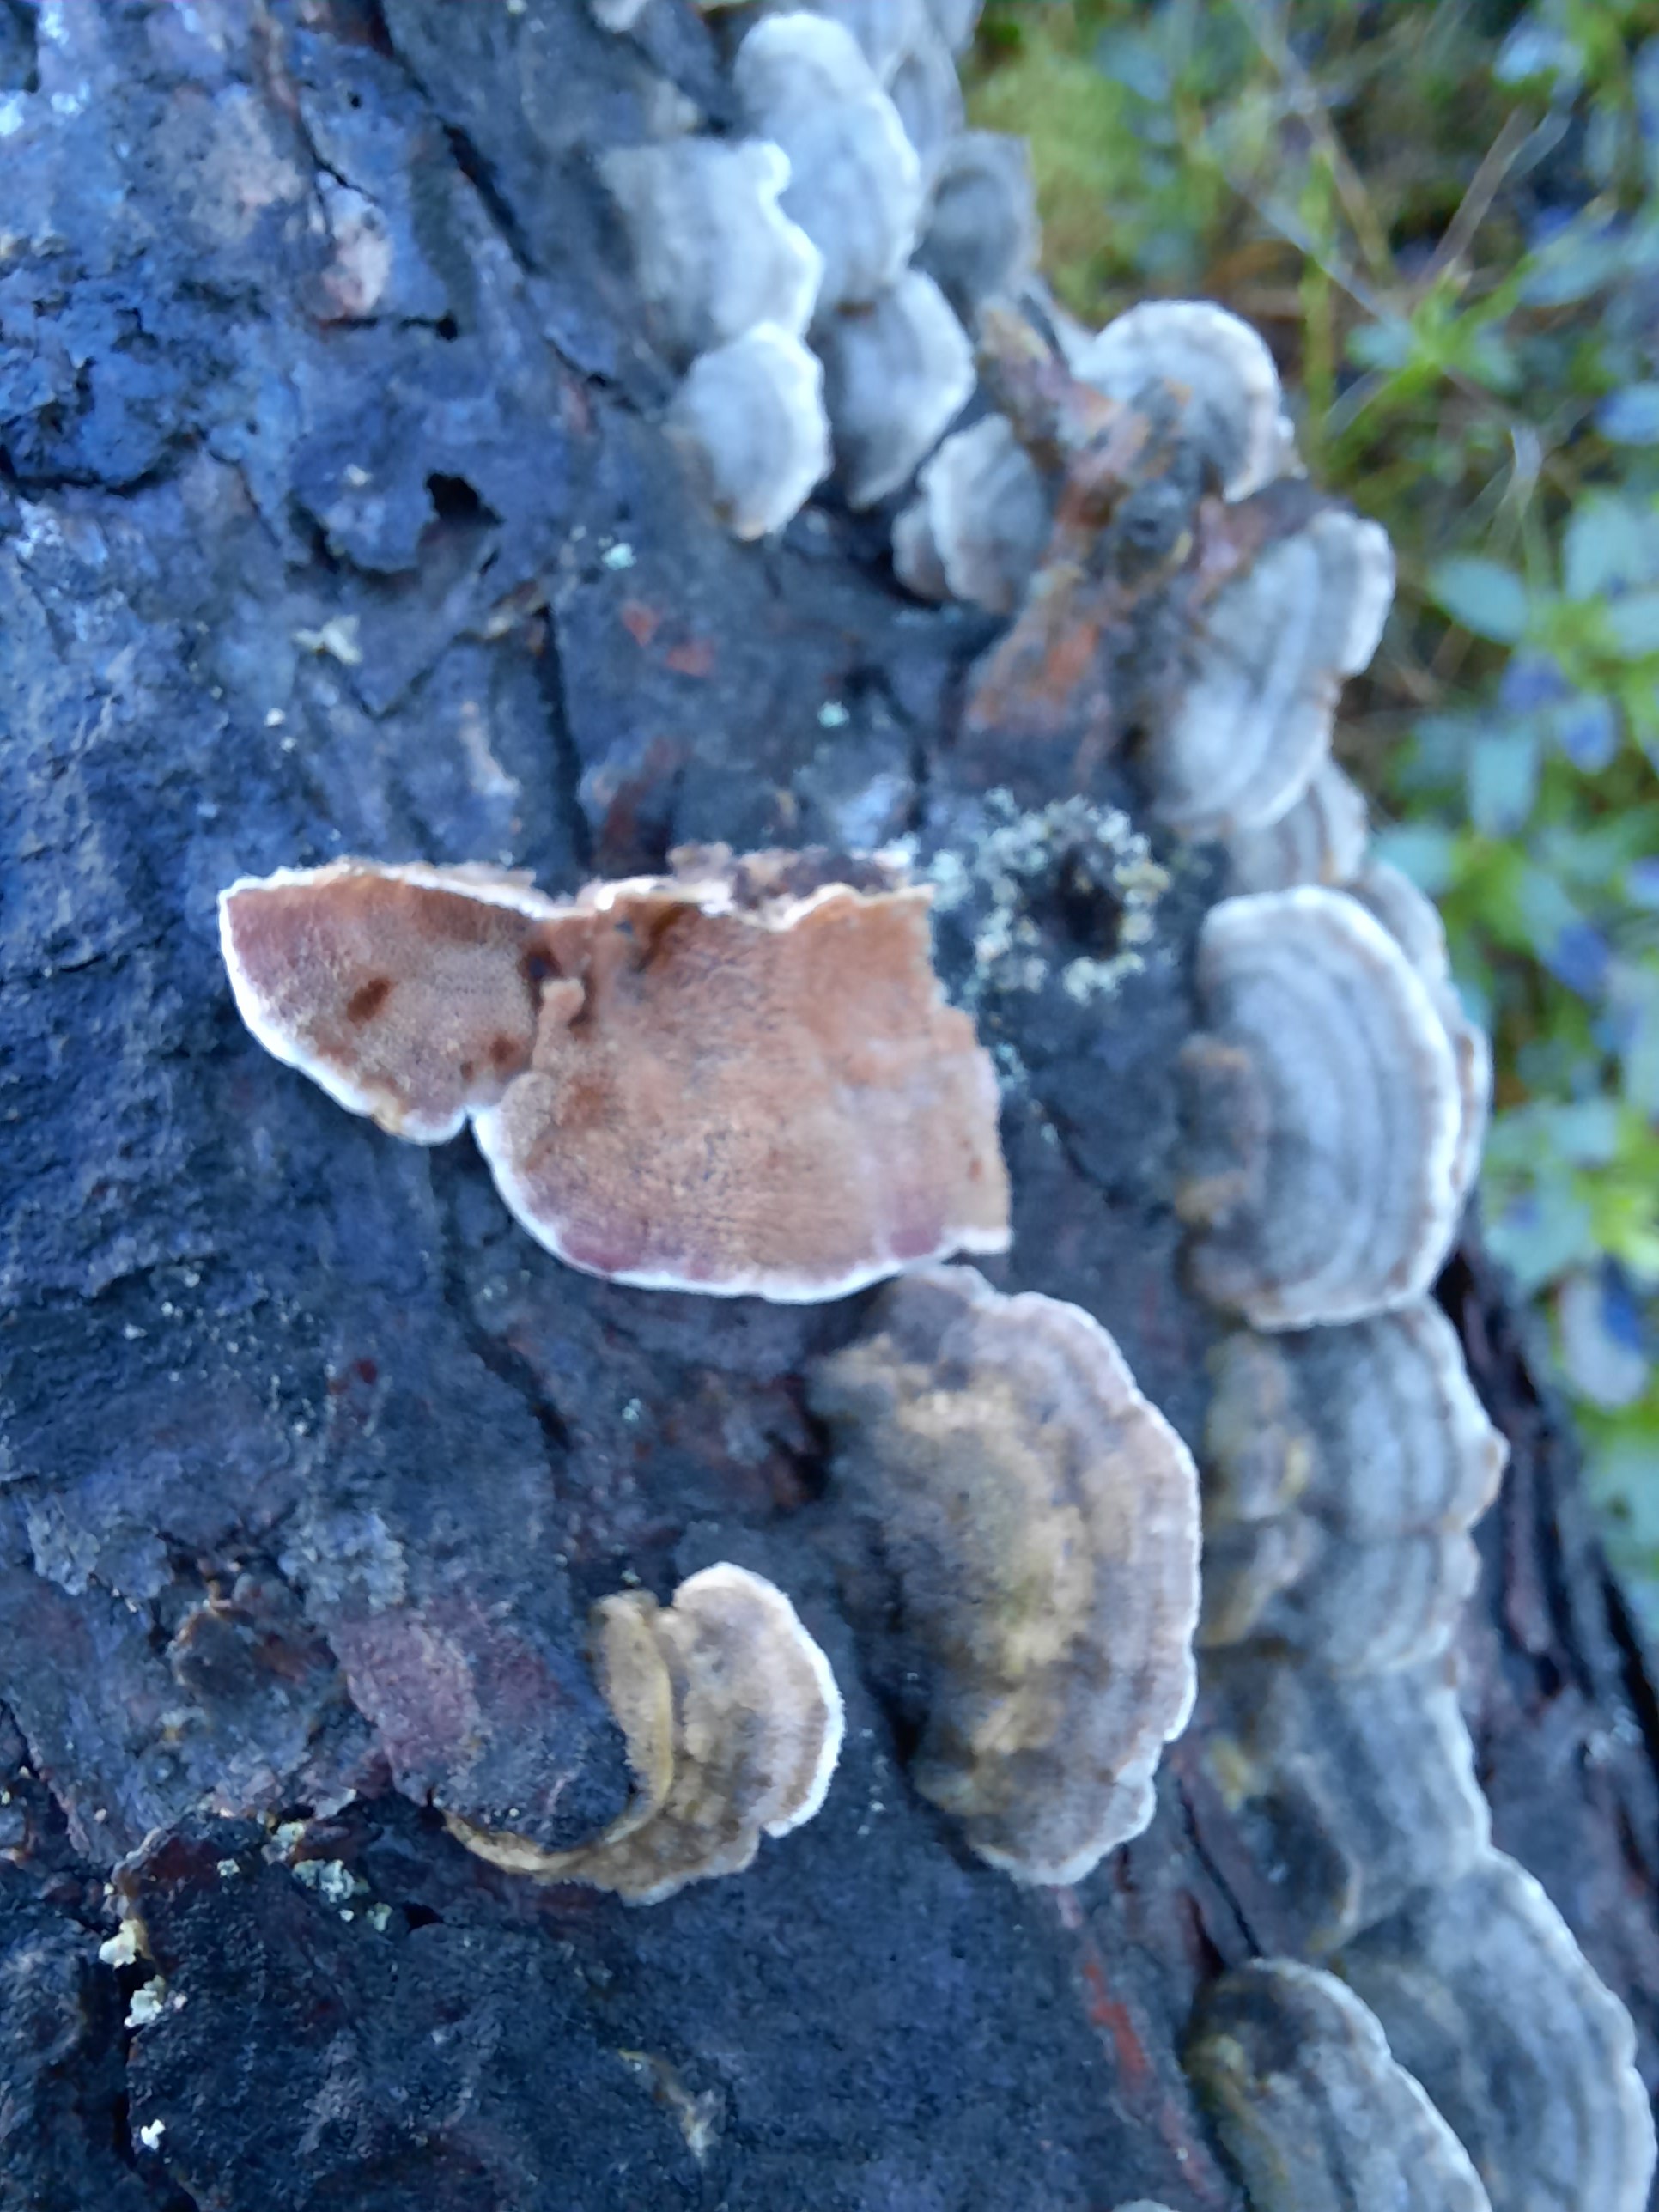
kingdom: Fungi
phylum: Basidiomycota
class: Agaricomycetes
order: Hymenochaetales
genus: Trichaptum
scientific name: Trichaptum abietinum
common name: almindelig violporesvamp
